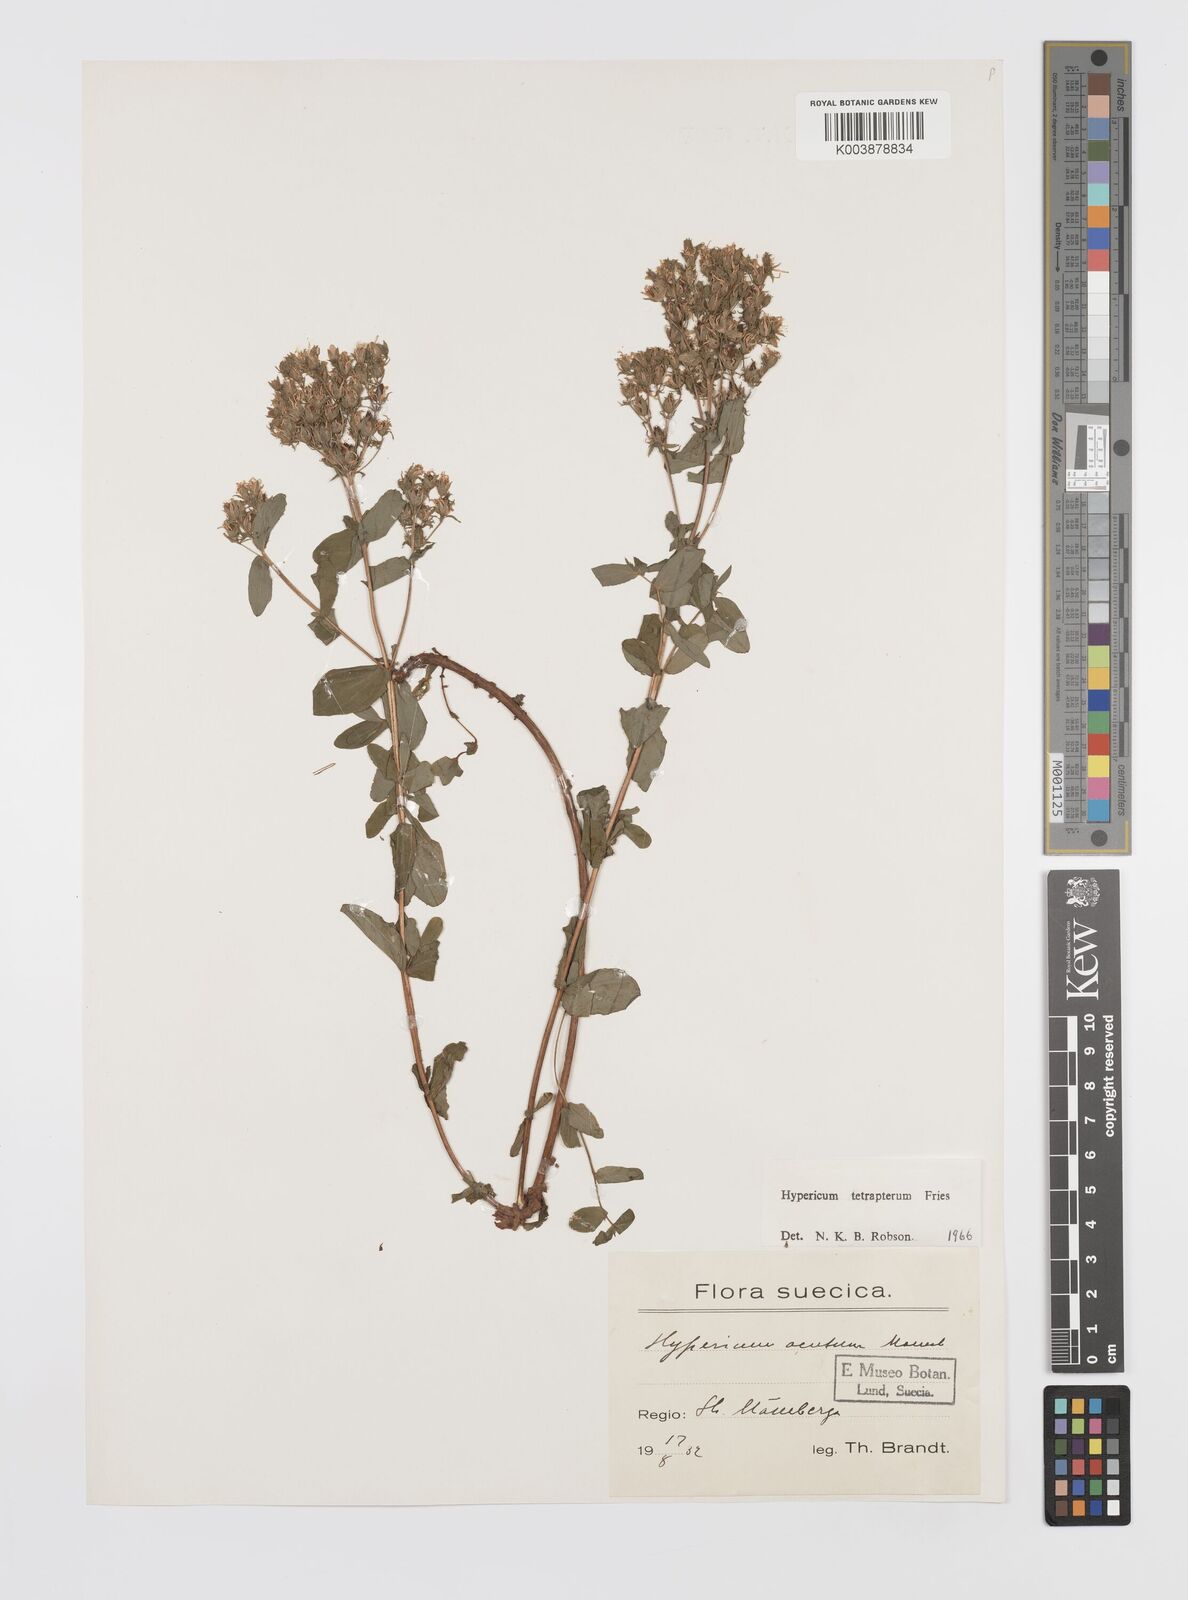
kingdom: Plantae
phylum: Tracheophyta
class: Magnoliopsida
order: Malpighiales
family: Hypericaceae
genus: Hypericum
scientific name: Hypericum tetrapterum
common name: Square-stalked st. john's-wort
